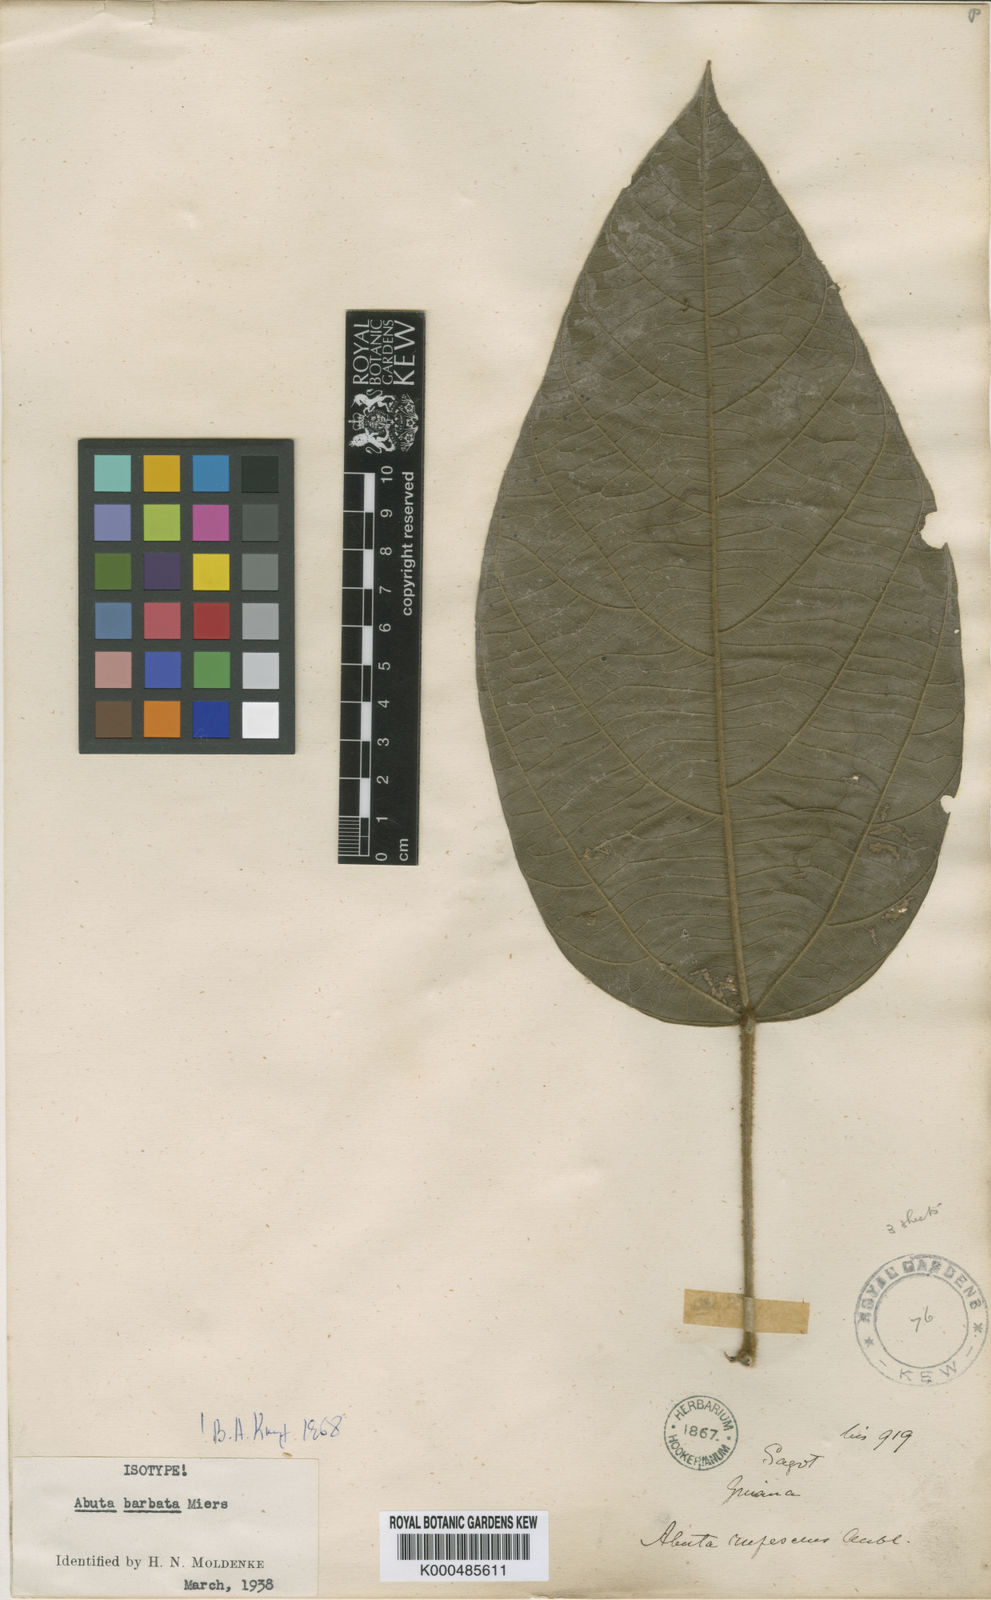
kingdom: Plantae
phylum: Tracheophyta
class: Magnoliopsida
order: Ranunculales
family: Menispermaceae
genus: Abuta
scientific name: Abuta barbata
